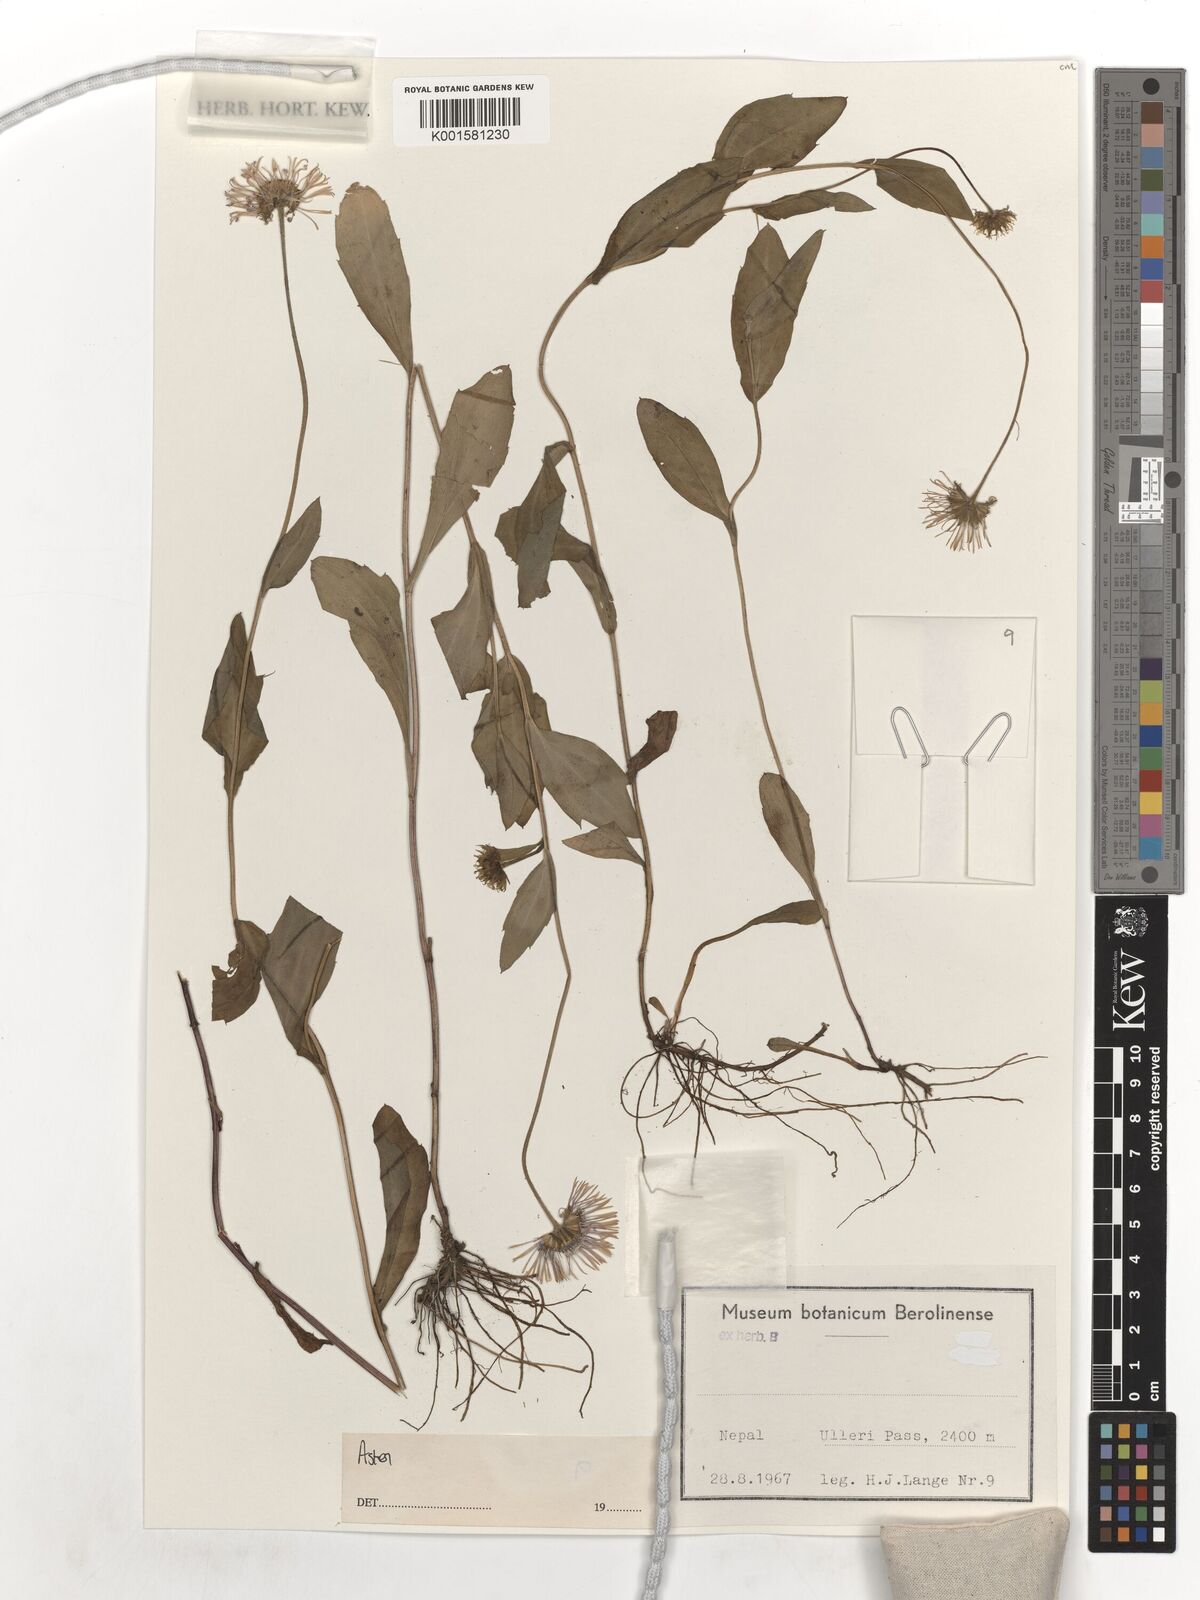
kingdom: Plantae
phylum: Tracheophyta
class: Magnoliopsida
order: Asterales
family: Asteraceae
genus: Aster
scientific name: Aster
